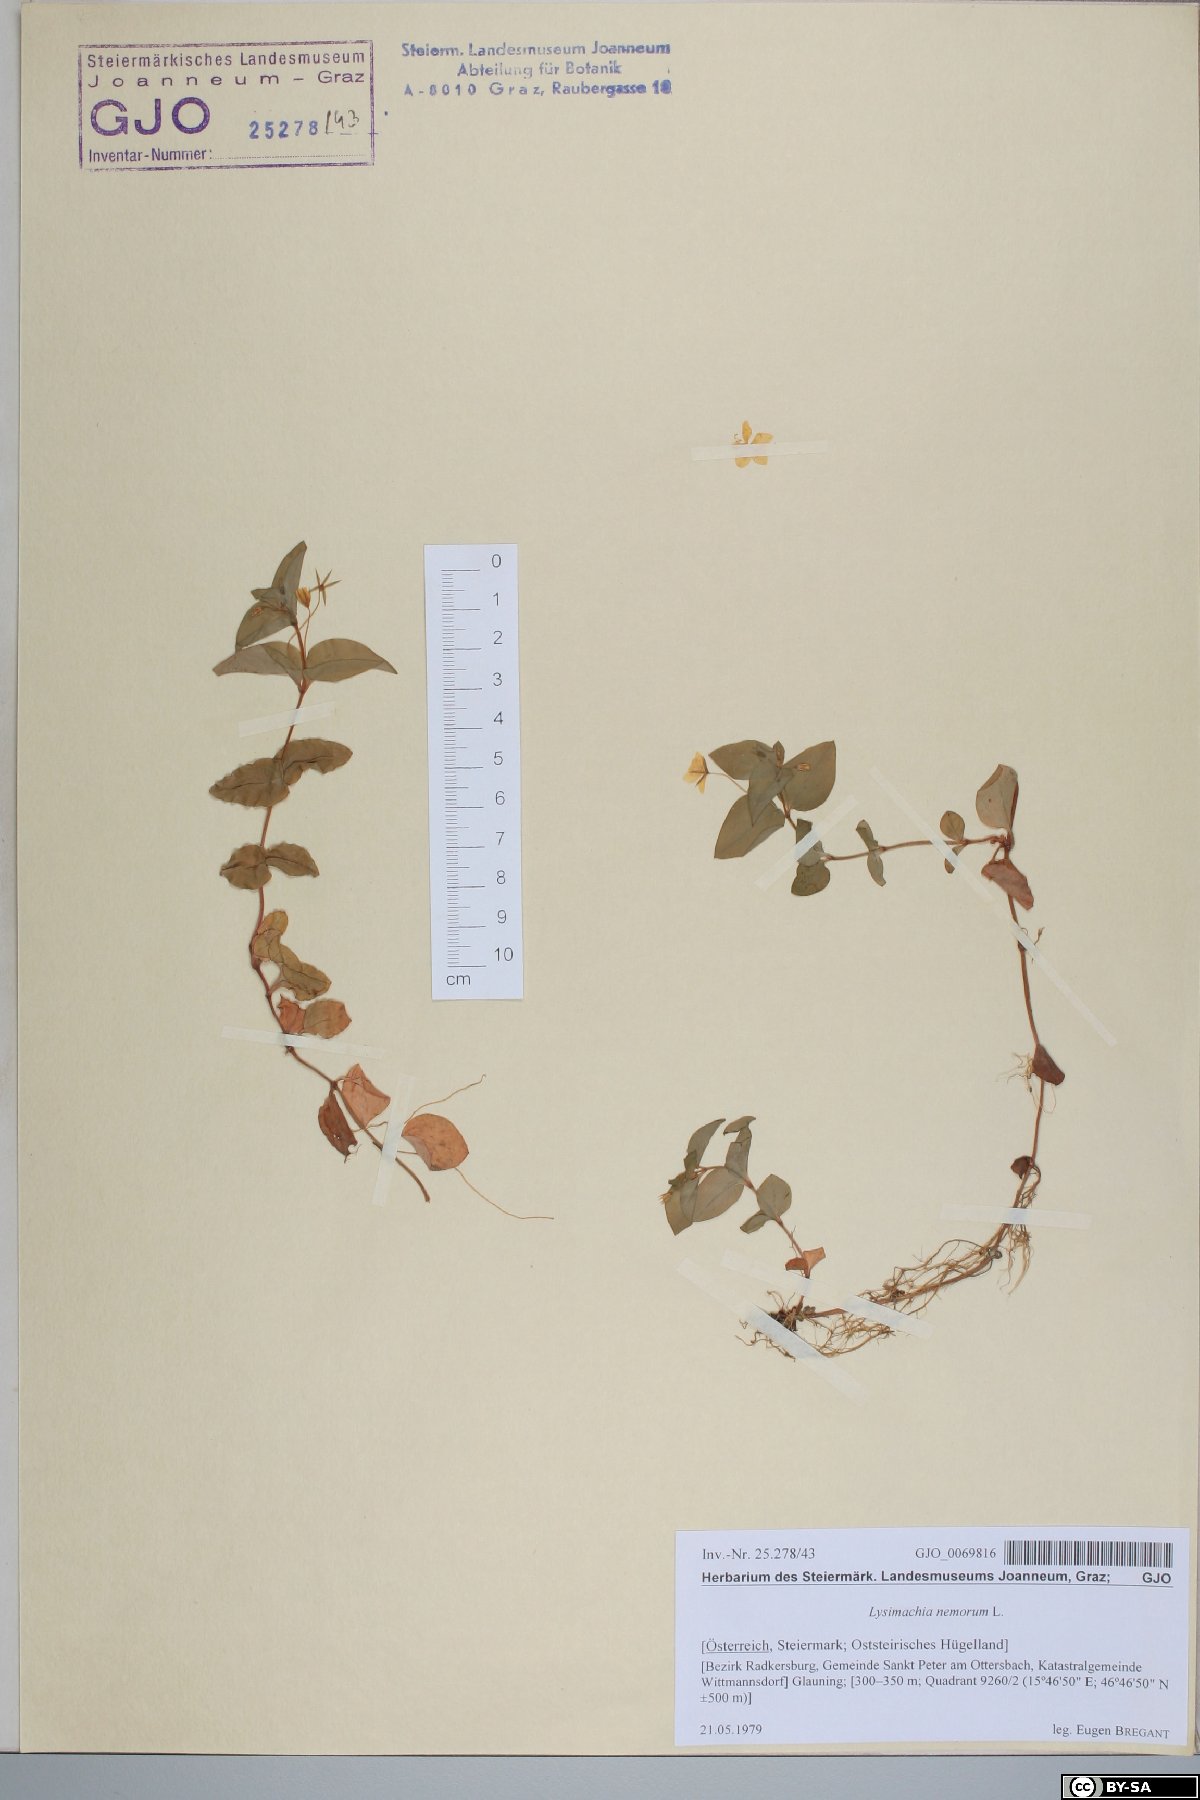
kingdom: Plantae
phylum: Tracheophyta
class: Magnoliopsida
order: Ericales
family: Primulaceae
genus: Lysimachia
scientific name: Lysimachia nemorum
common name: Yellow pimpernel
